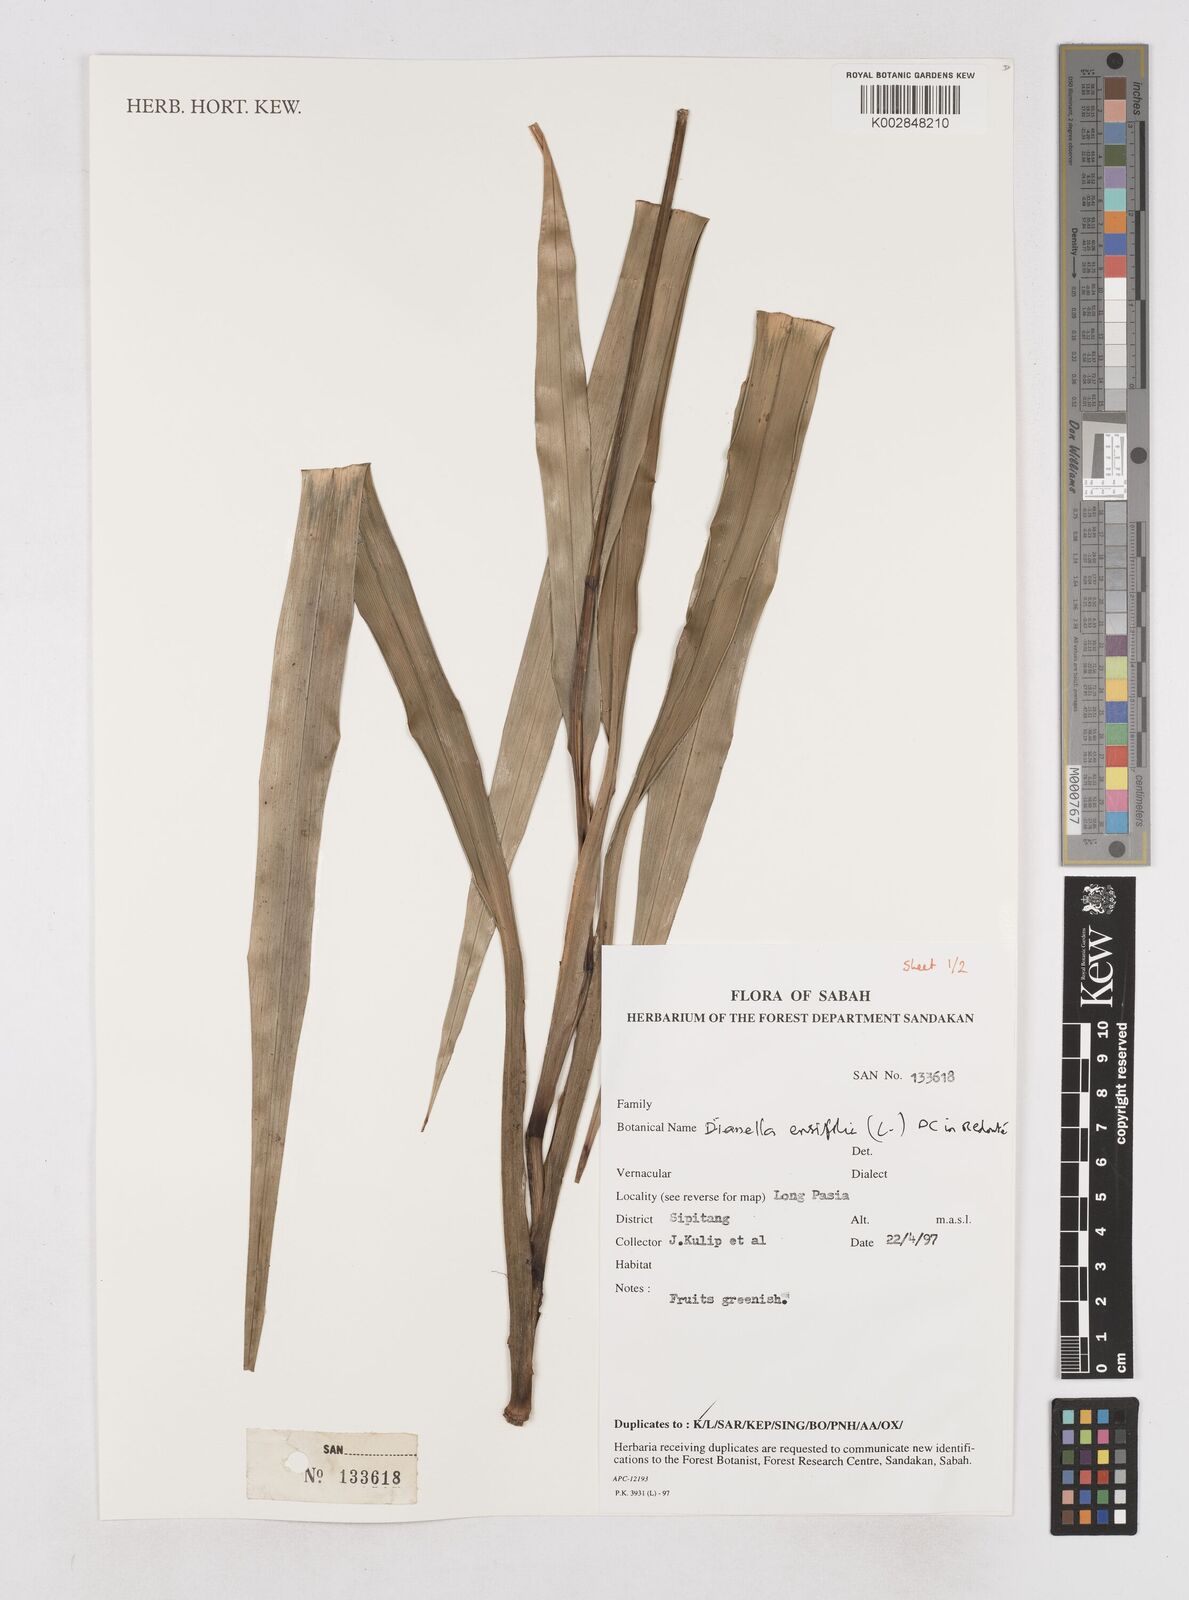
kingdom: Plantae
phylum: Tracheophyta
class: Liliopsida
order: Asparagales
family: Asphodelaceae
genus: Dianella
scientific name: Dianella ensifolia
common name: New zealand lilyplant
